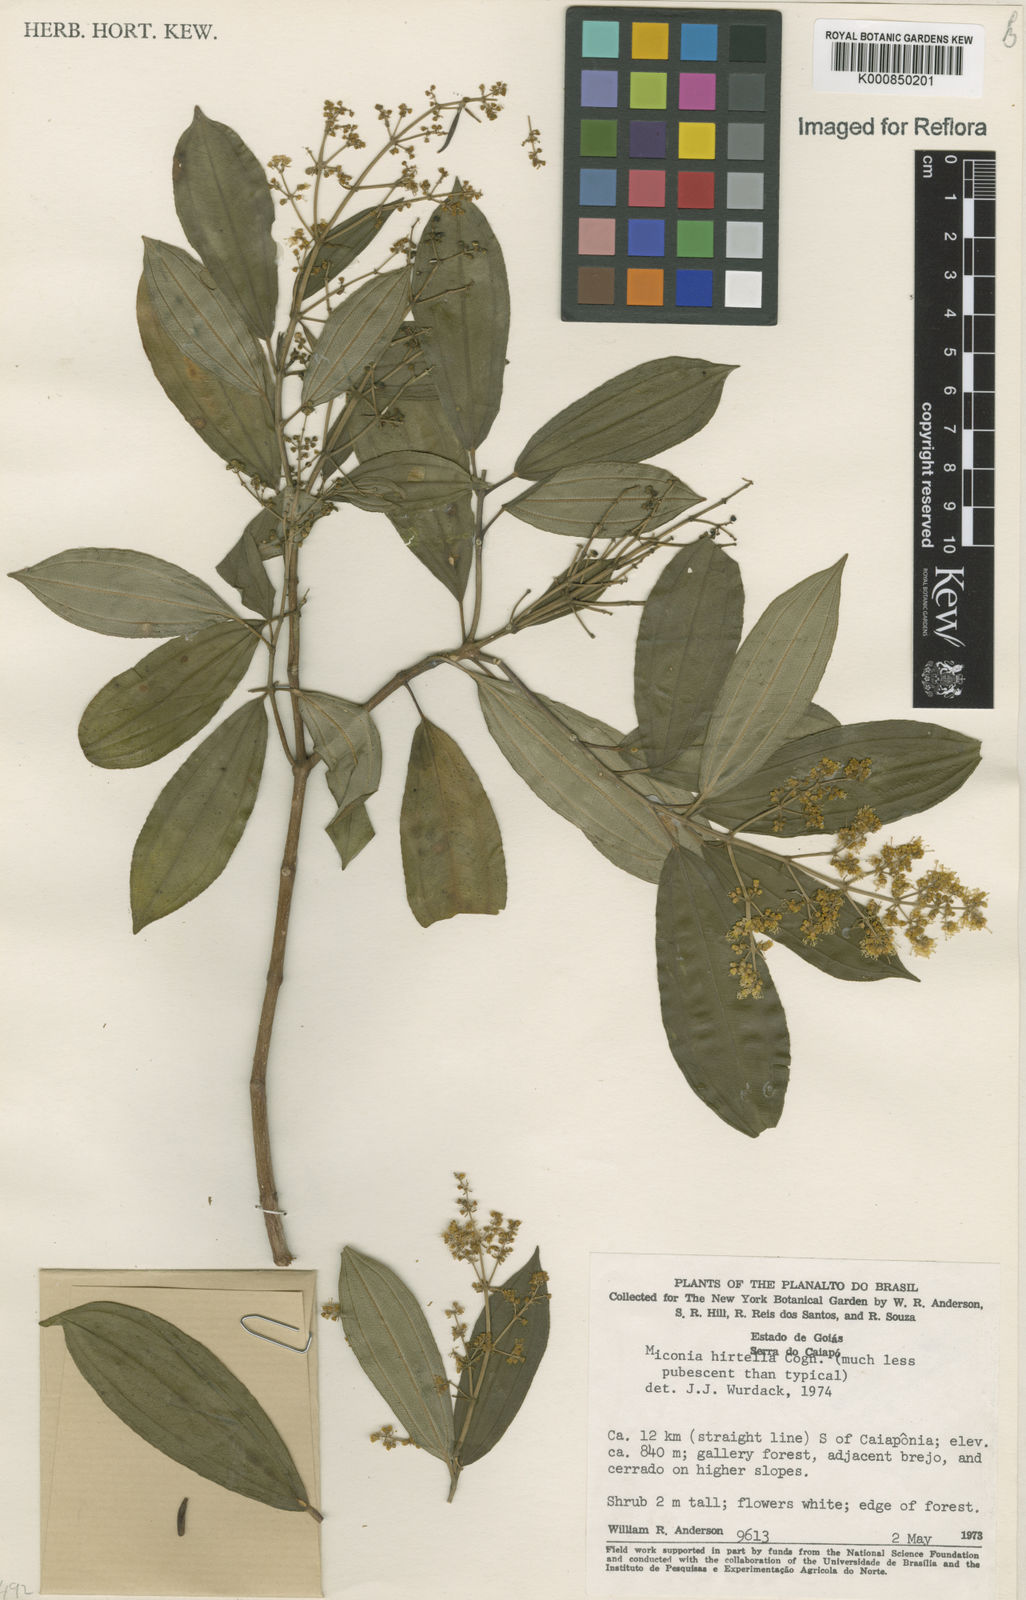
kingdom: Plantae
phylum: Tracheophyta
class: Magnoliopsida
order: Myrtales
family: Melastomataceae
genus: Miconia
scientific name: Miconia hirta
